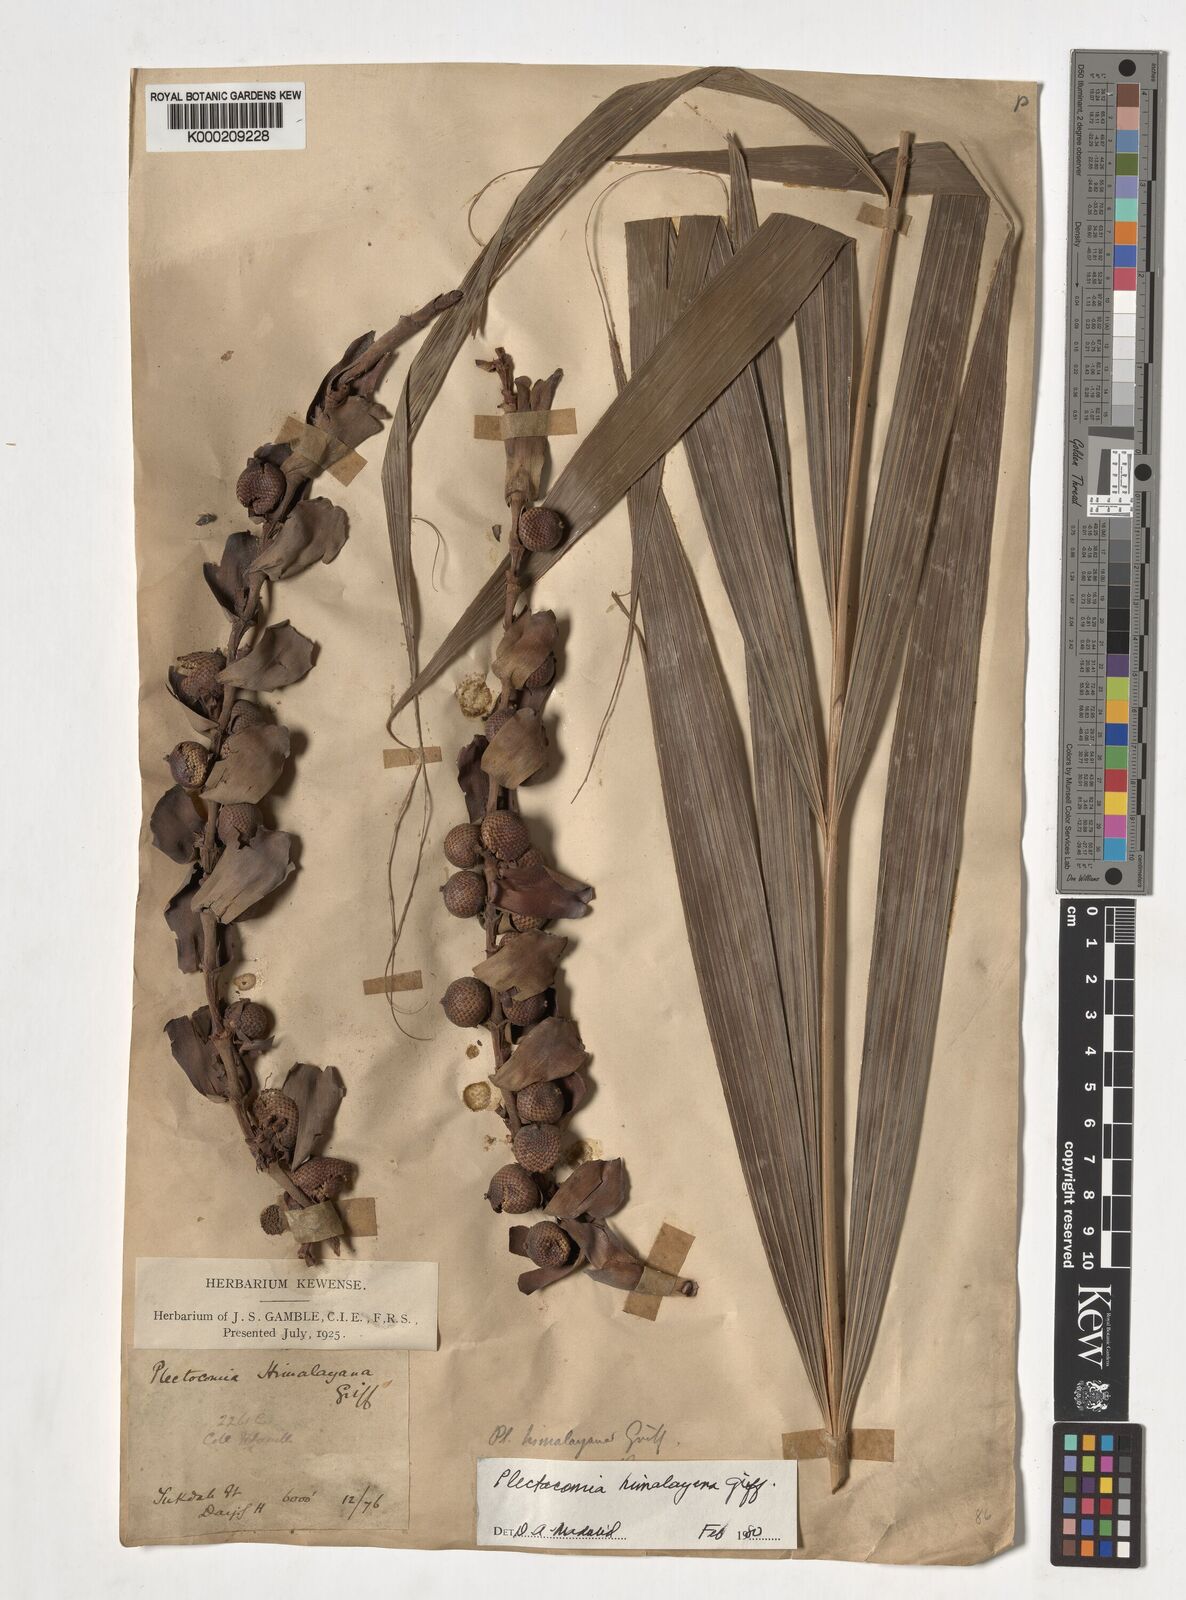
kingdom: Plantae
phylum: Tracheophyta
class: Liliopsida
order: Arecales
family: Arecaceae
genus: Plectocomia
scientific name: Plectocomia himalayana
